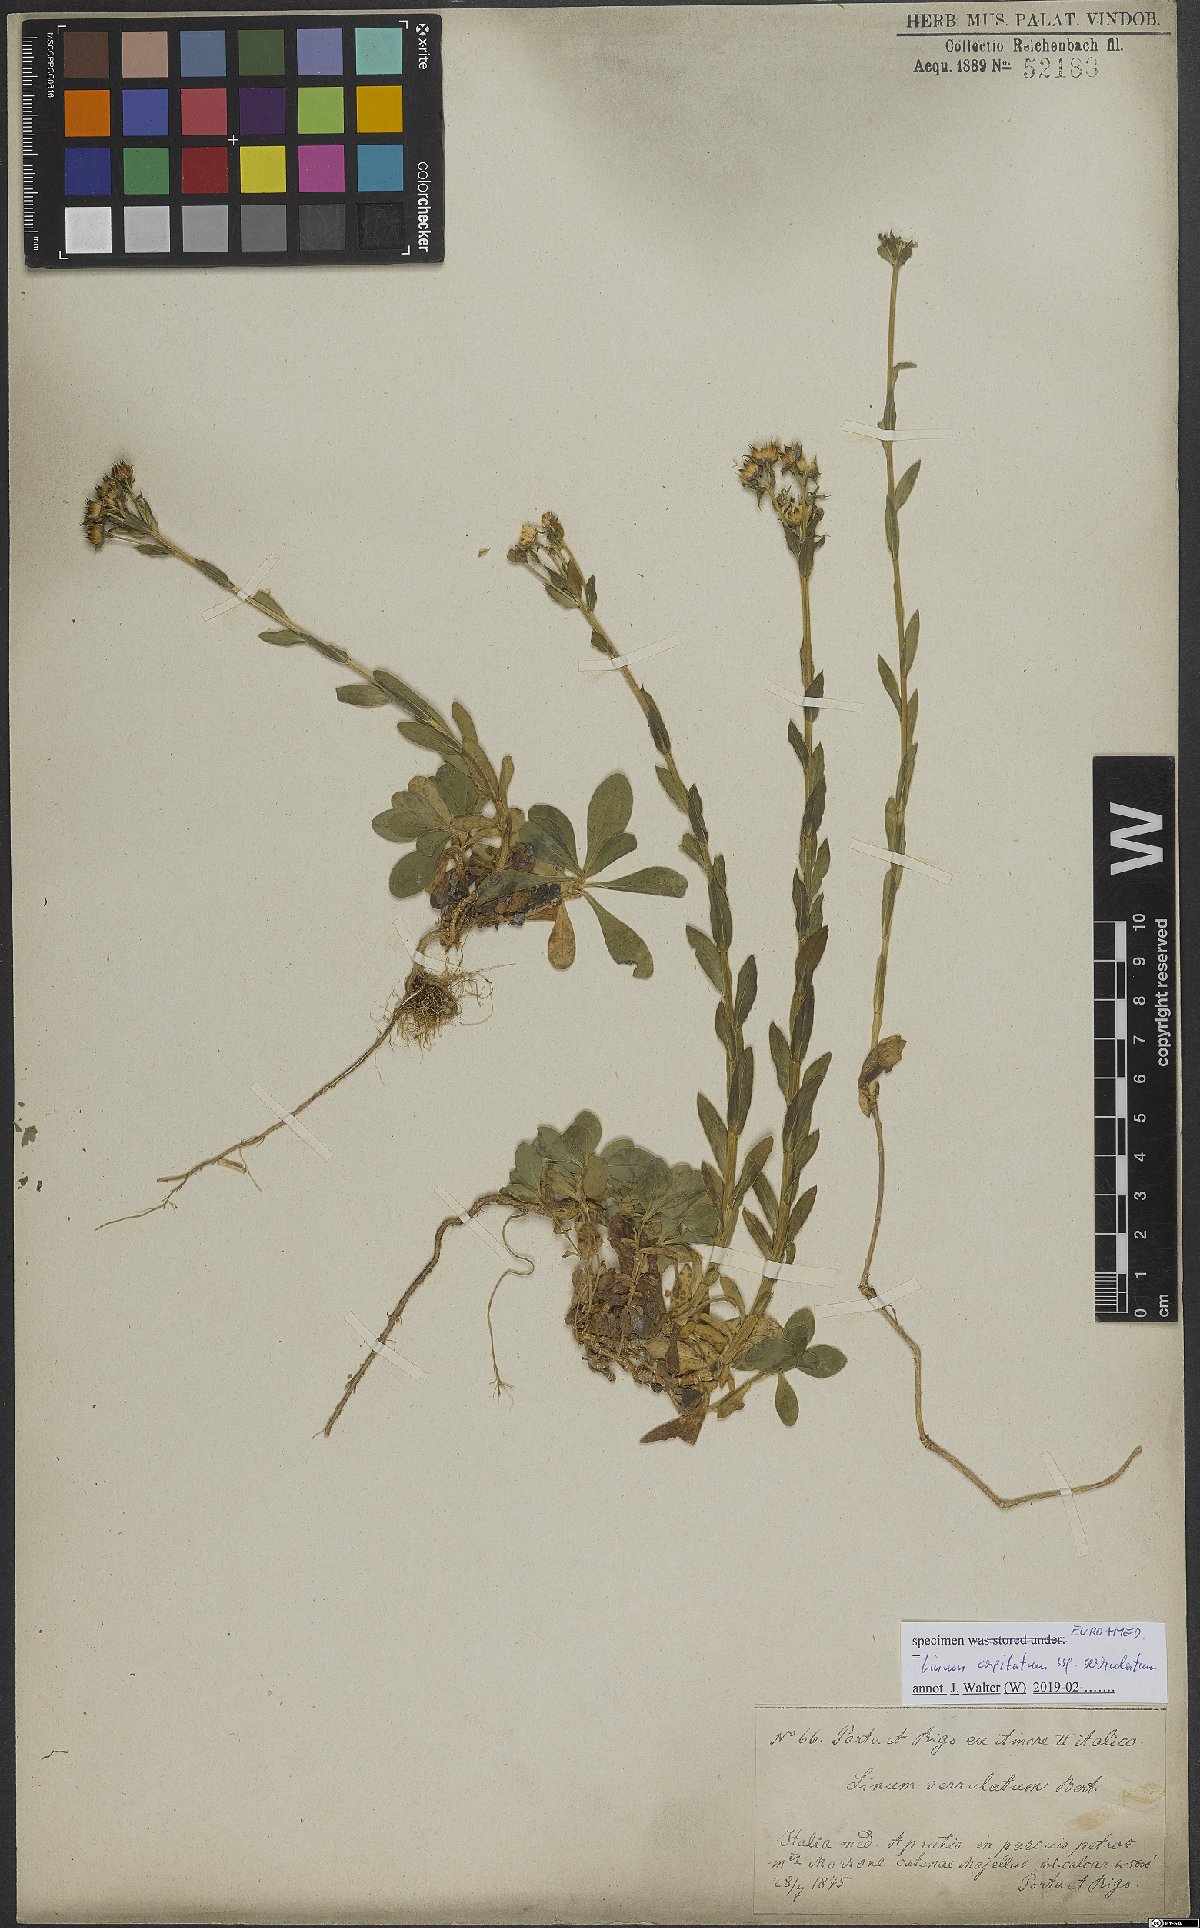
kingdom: Plantae
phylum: Tracheophyta
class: Magnoliopsida
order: Malpighiales
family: Linaceae
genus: Linum
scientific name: Linum capitatum
